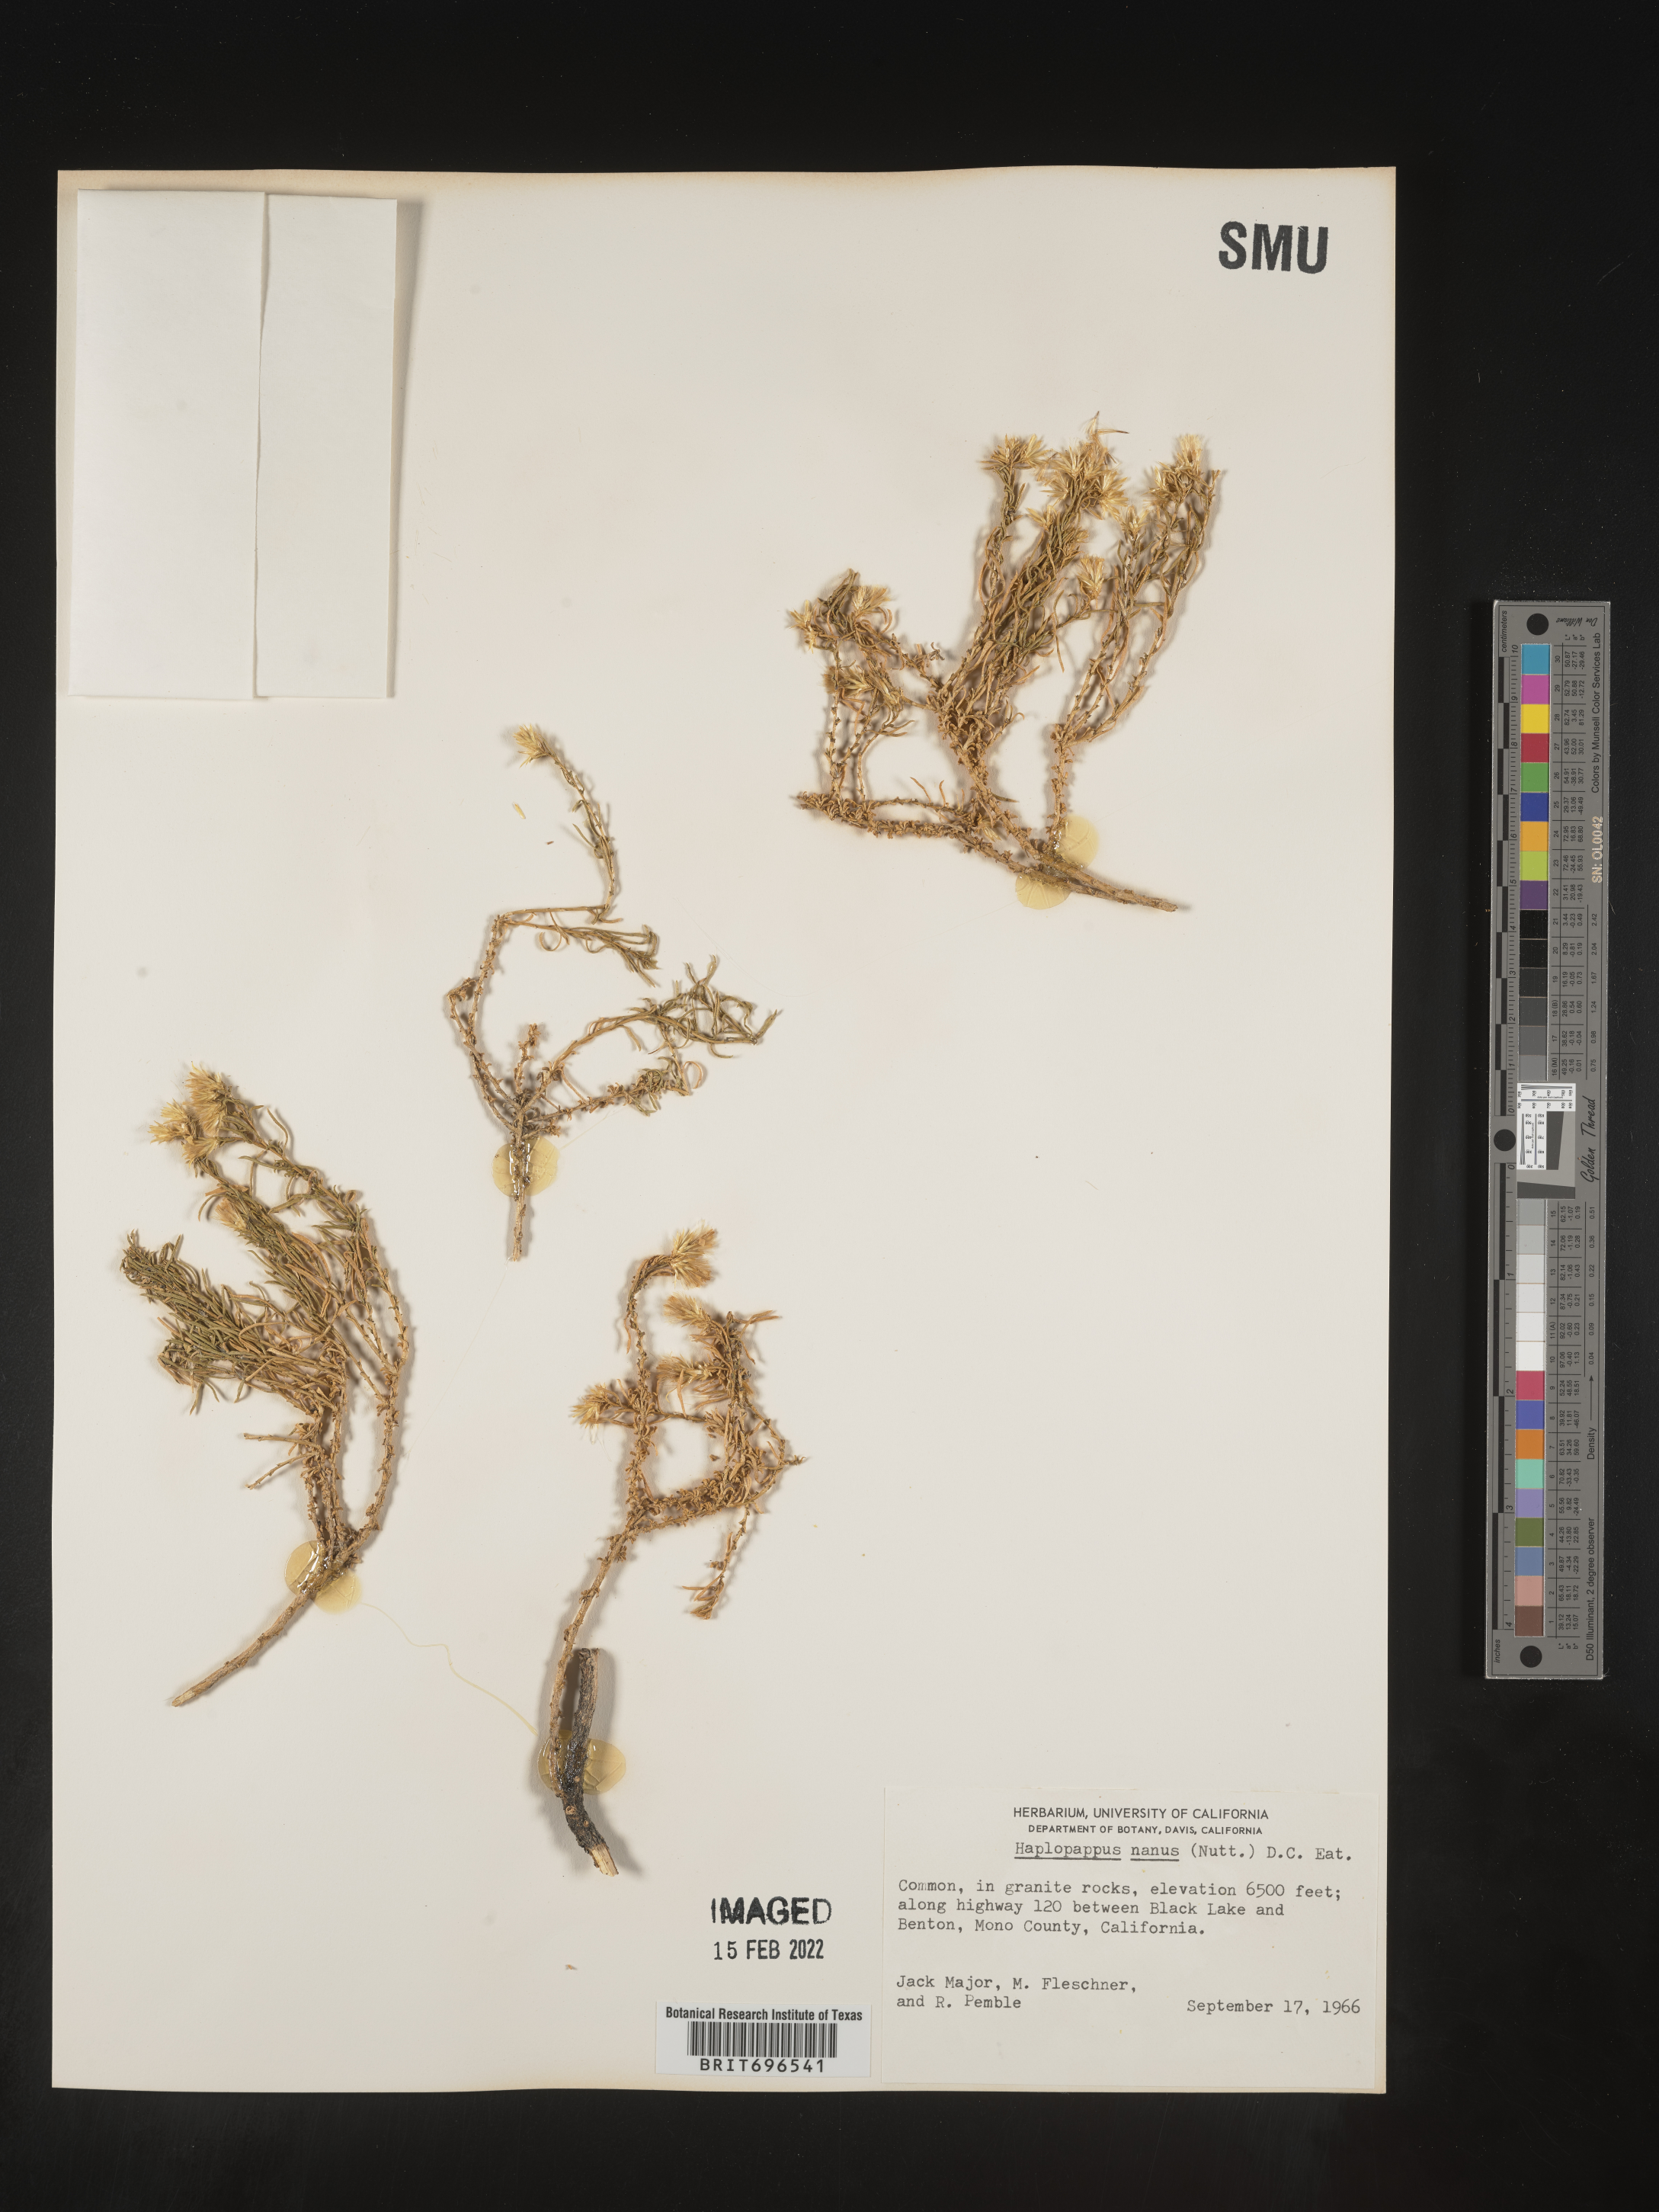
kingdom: Plantae
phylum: Tracheophyta
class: Magnoliopsida
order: Asterales
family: Asteraceae
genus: Ericameria
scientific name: Ericameria nana
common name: Dwarf goldenbush
